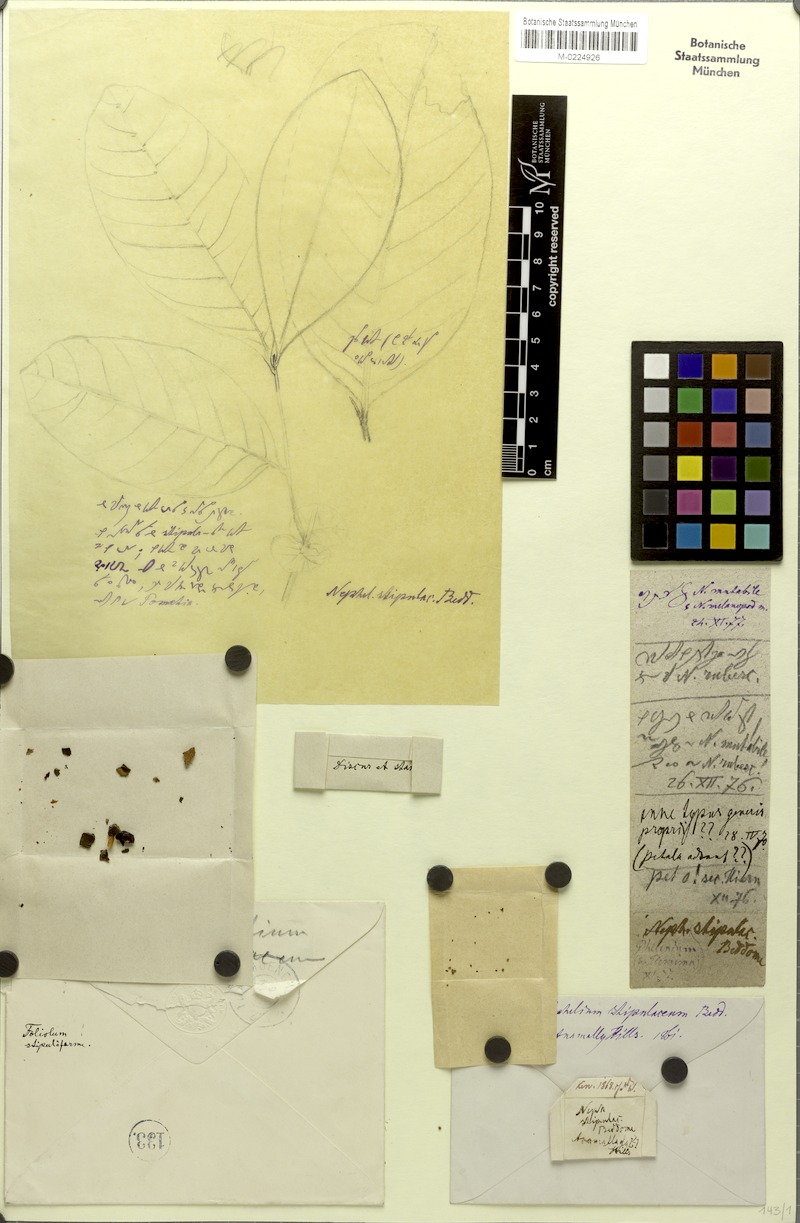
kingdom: Plantae
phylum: Tracheophyta
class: Magnoliopsida
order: Sapindales
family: Sapindaceae
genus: Otonephelium
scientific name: Otonephelium stipulaceum
